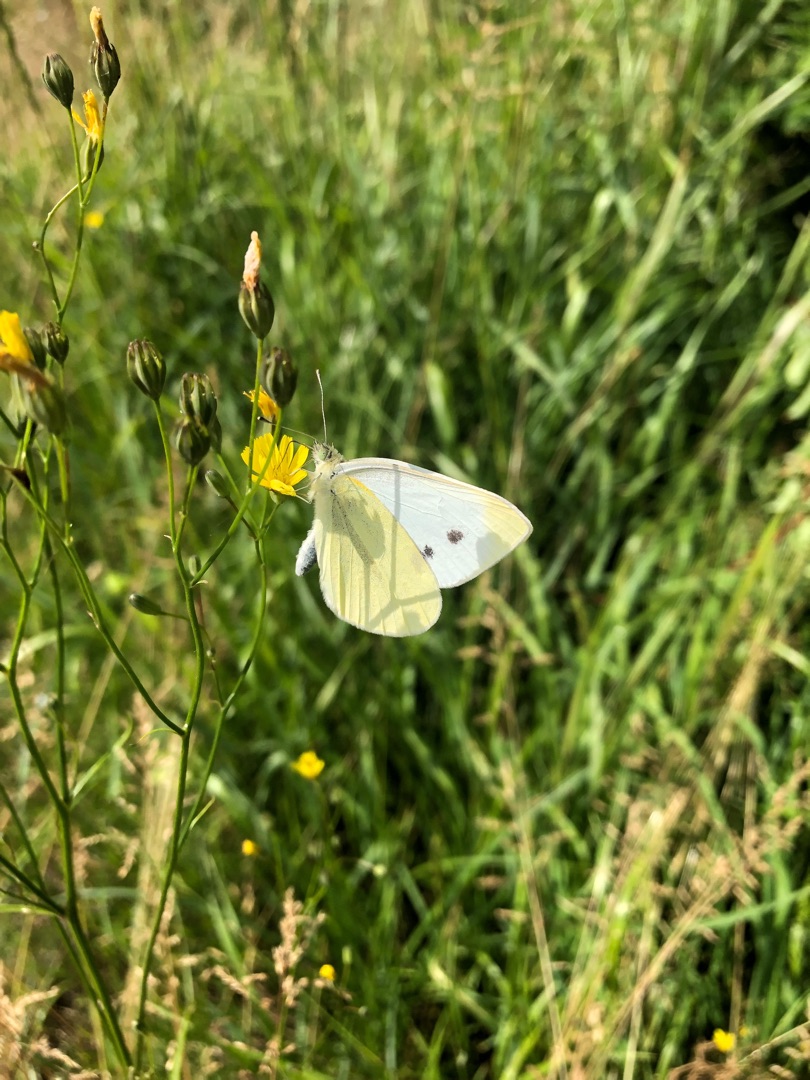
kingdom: Animalia
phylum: Arthropoda
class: Insecta
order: Lepidoptera
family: Pieridae
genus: Pieris
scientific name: Pieris brassicae
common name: Stor kålsommerfugl
